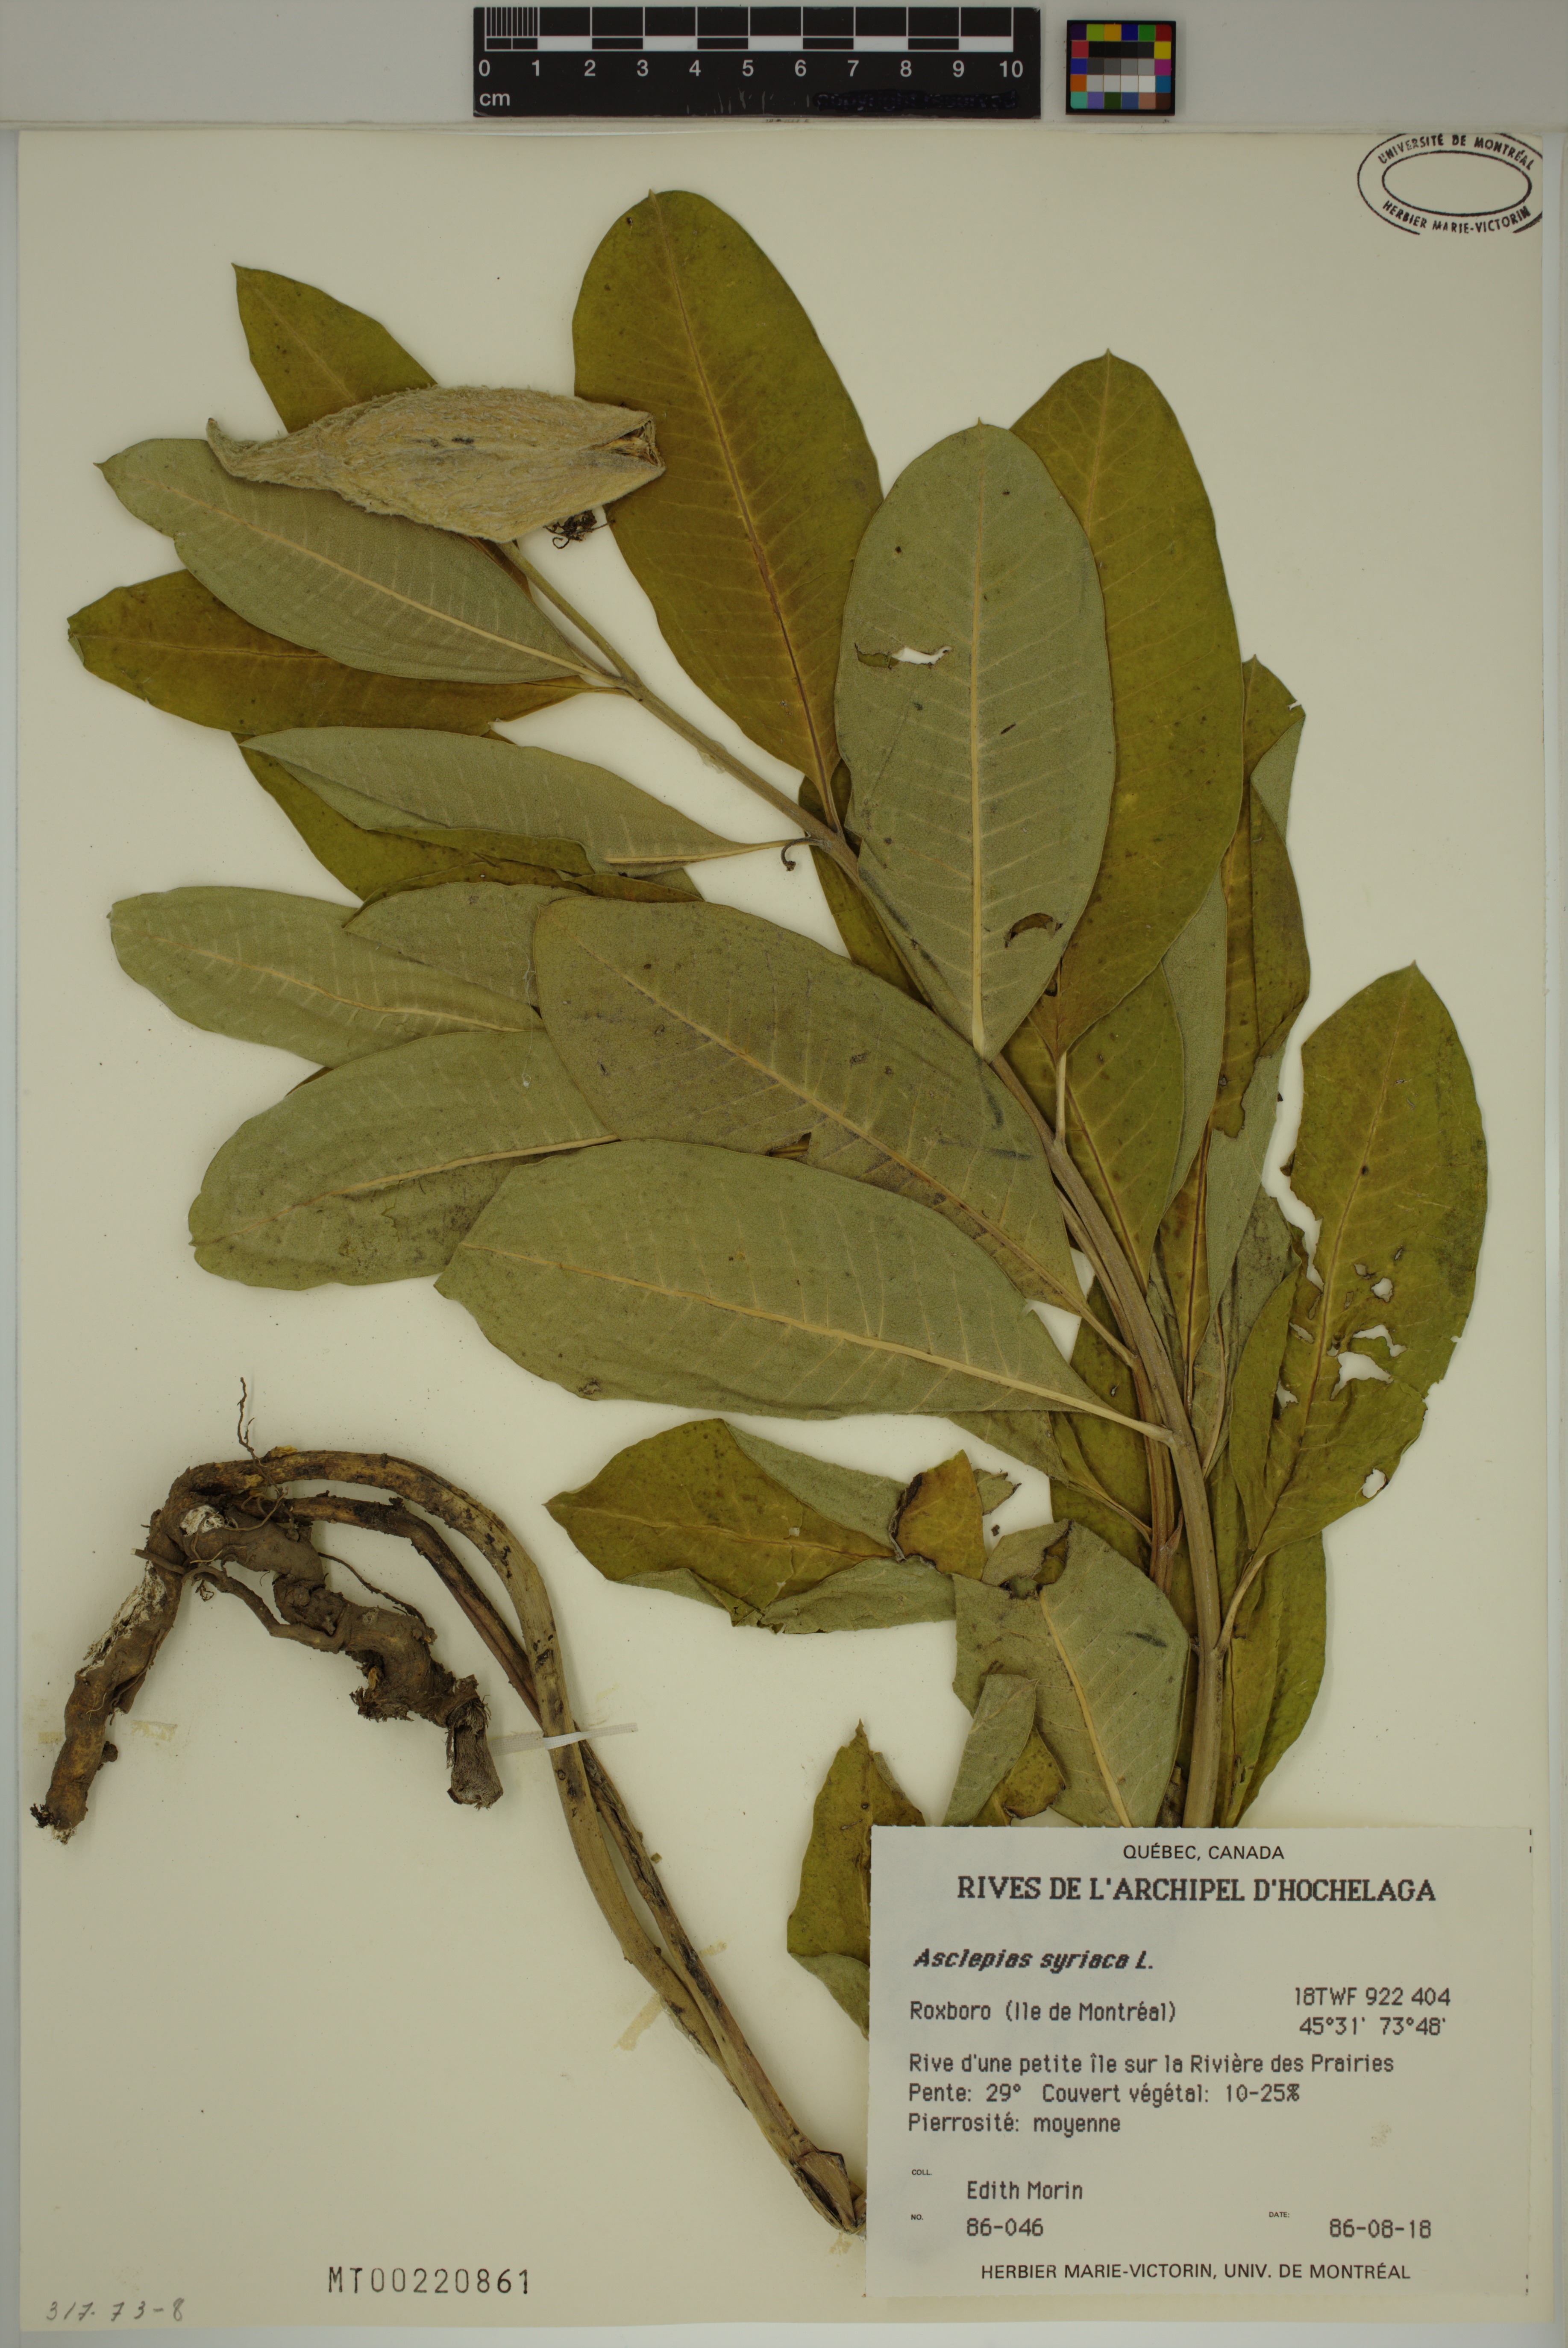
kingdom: Plantae
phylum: Tracheophyta
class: Magnoliopsida
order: Gentianales
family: Apocynaceae
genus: Asclepias
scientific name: Asclepias syriaca
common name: Common milkweed
